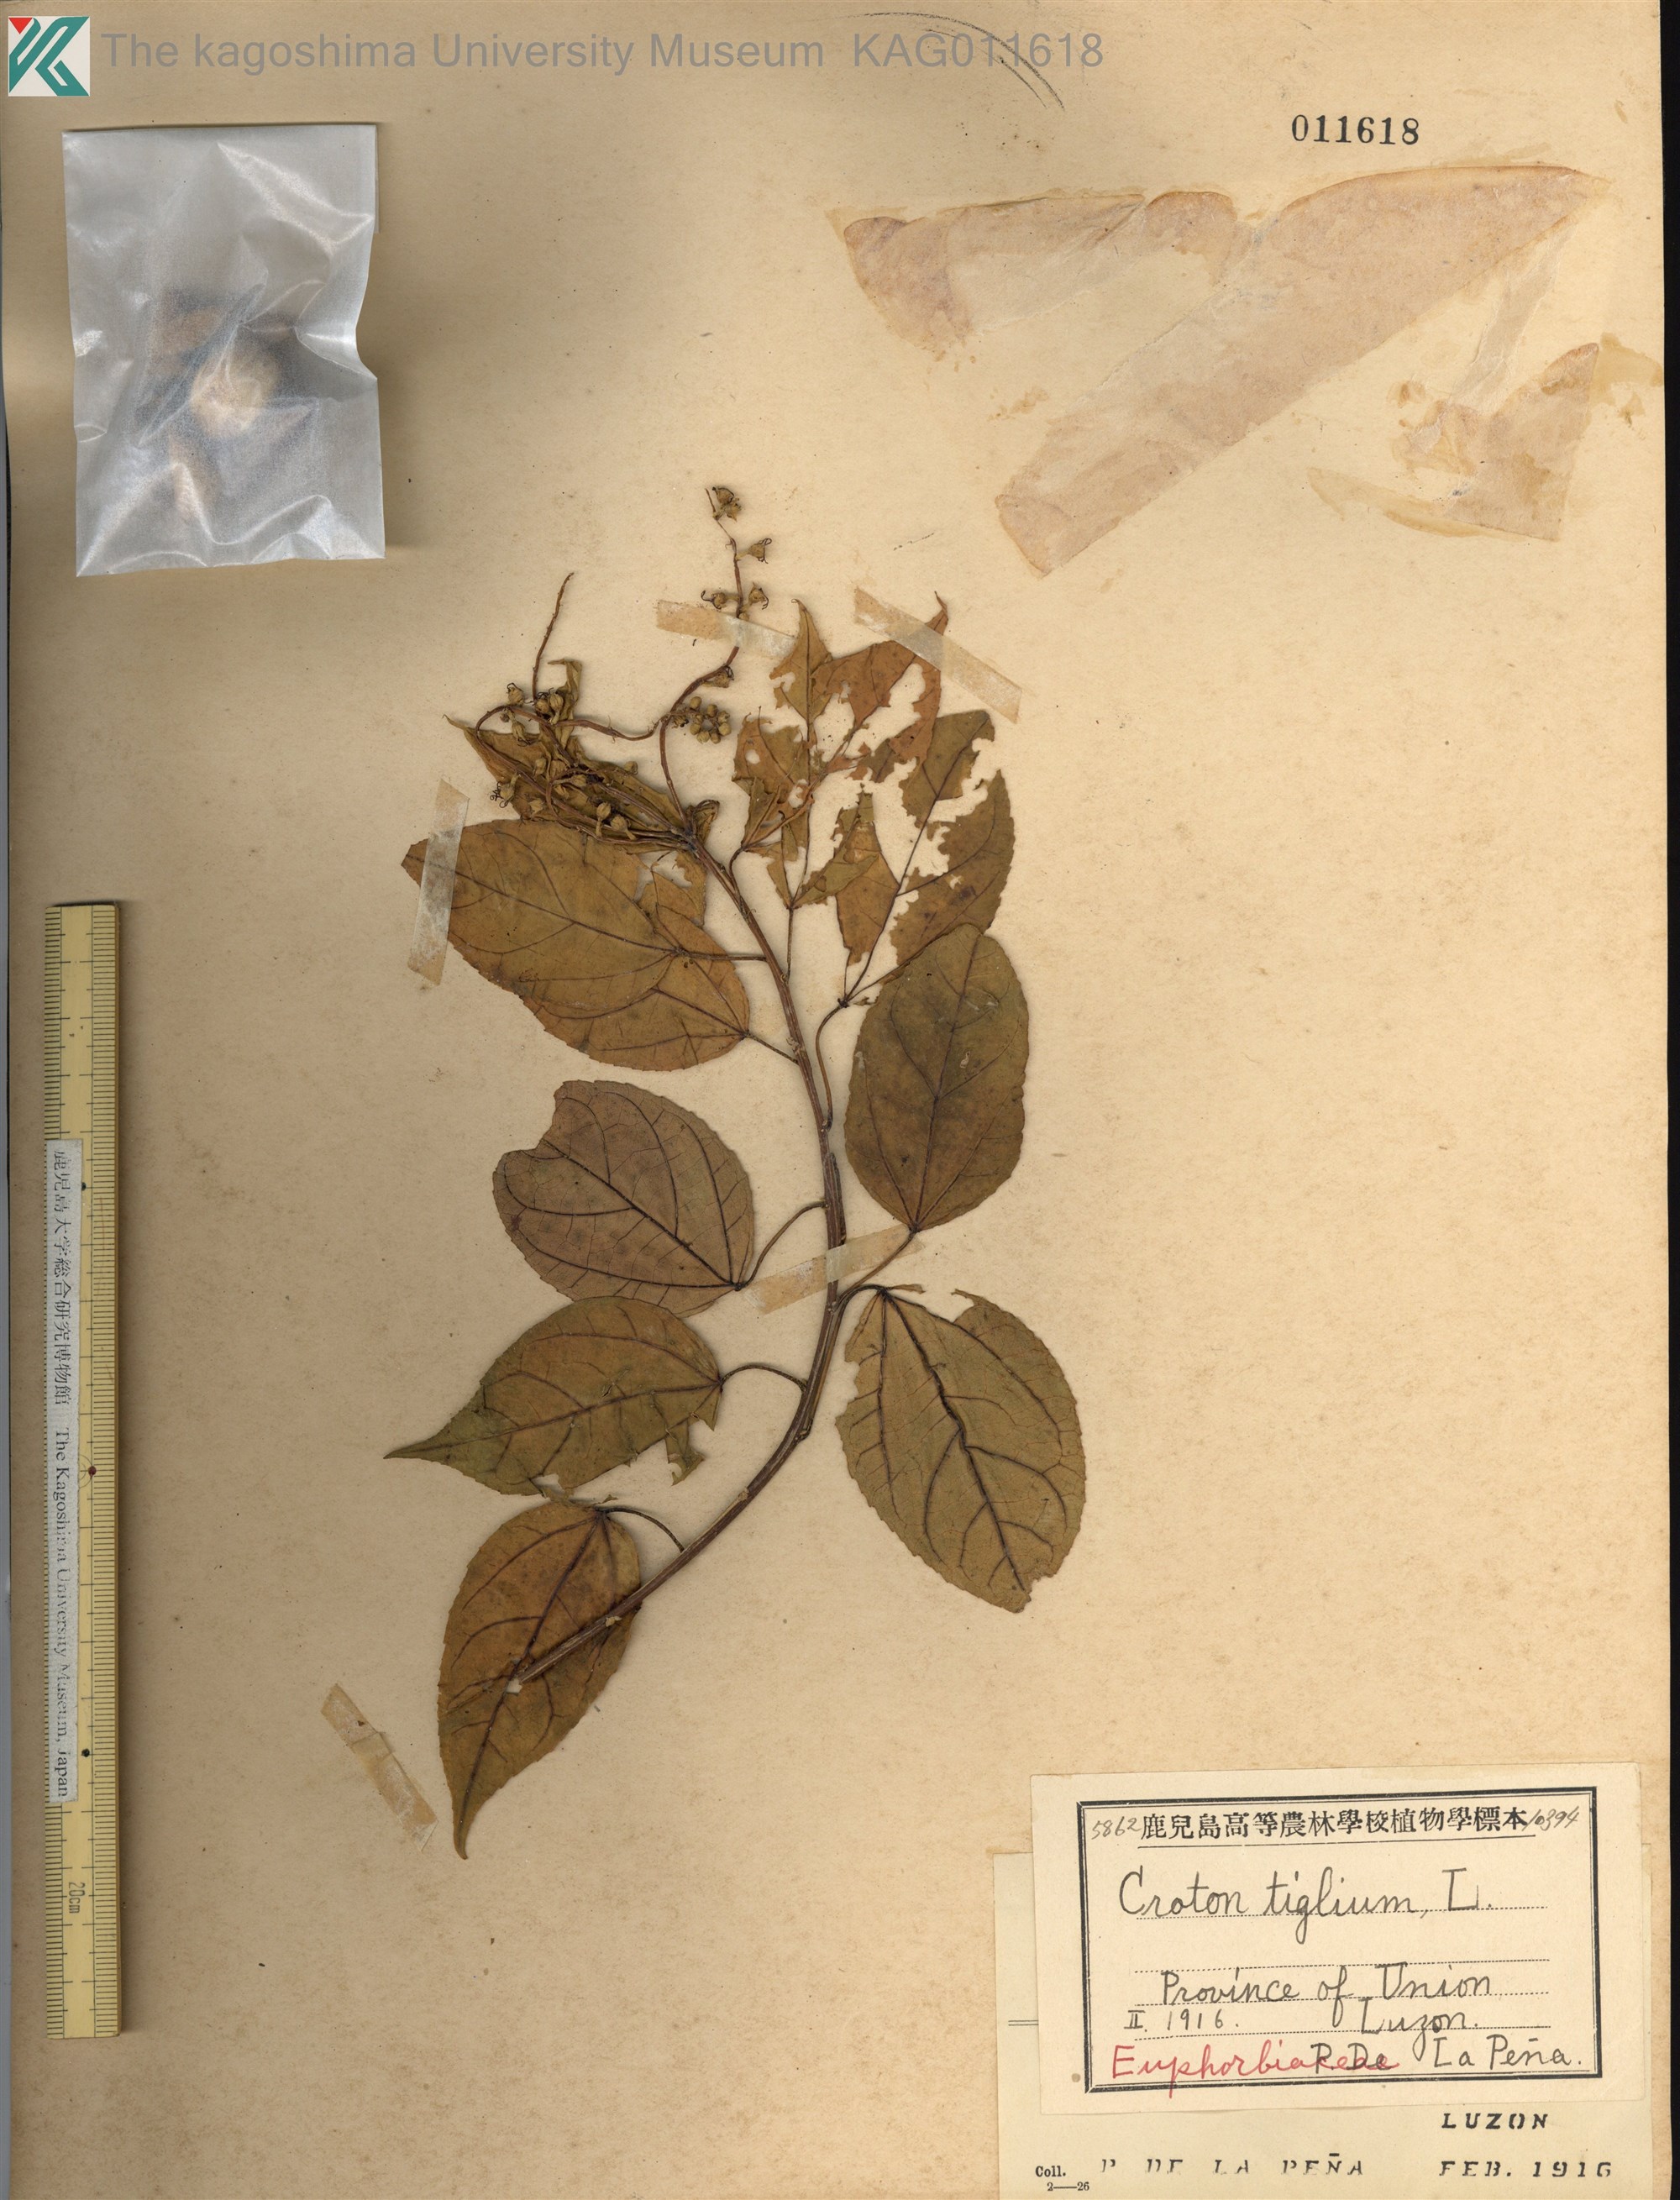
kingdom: Plantae
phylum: Tracheophyta
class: Magnoliopsida
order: Malpighiales
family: Euphorbiaceae
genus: Croton
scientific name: Croton tiglium
